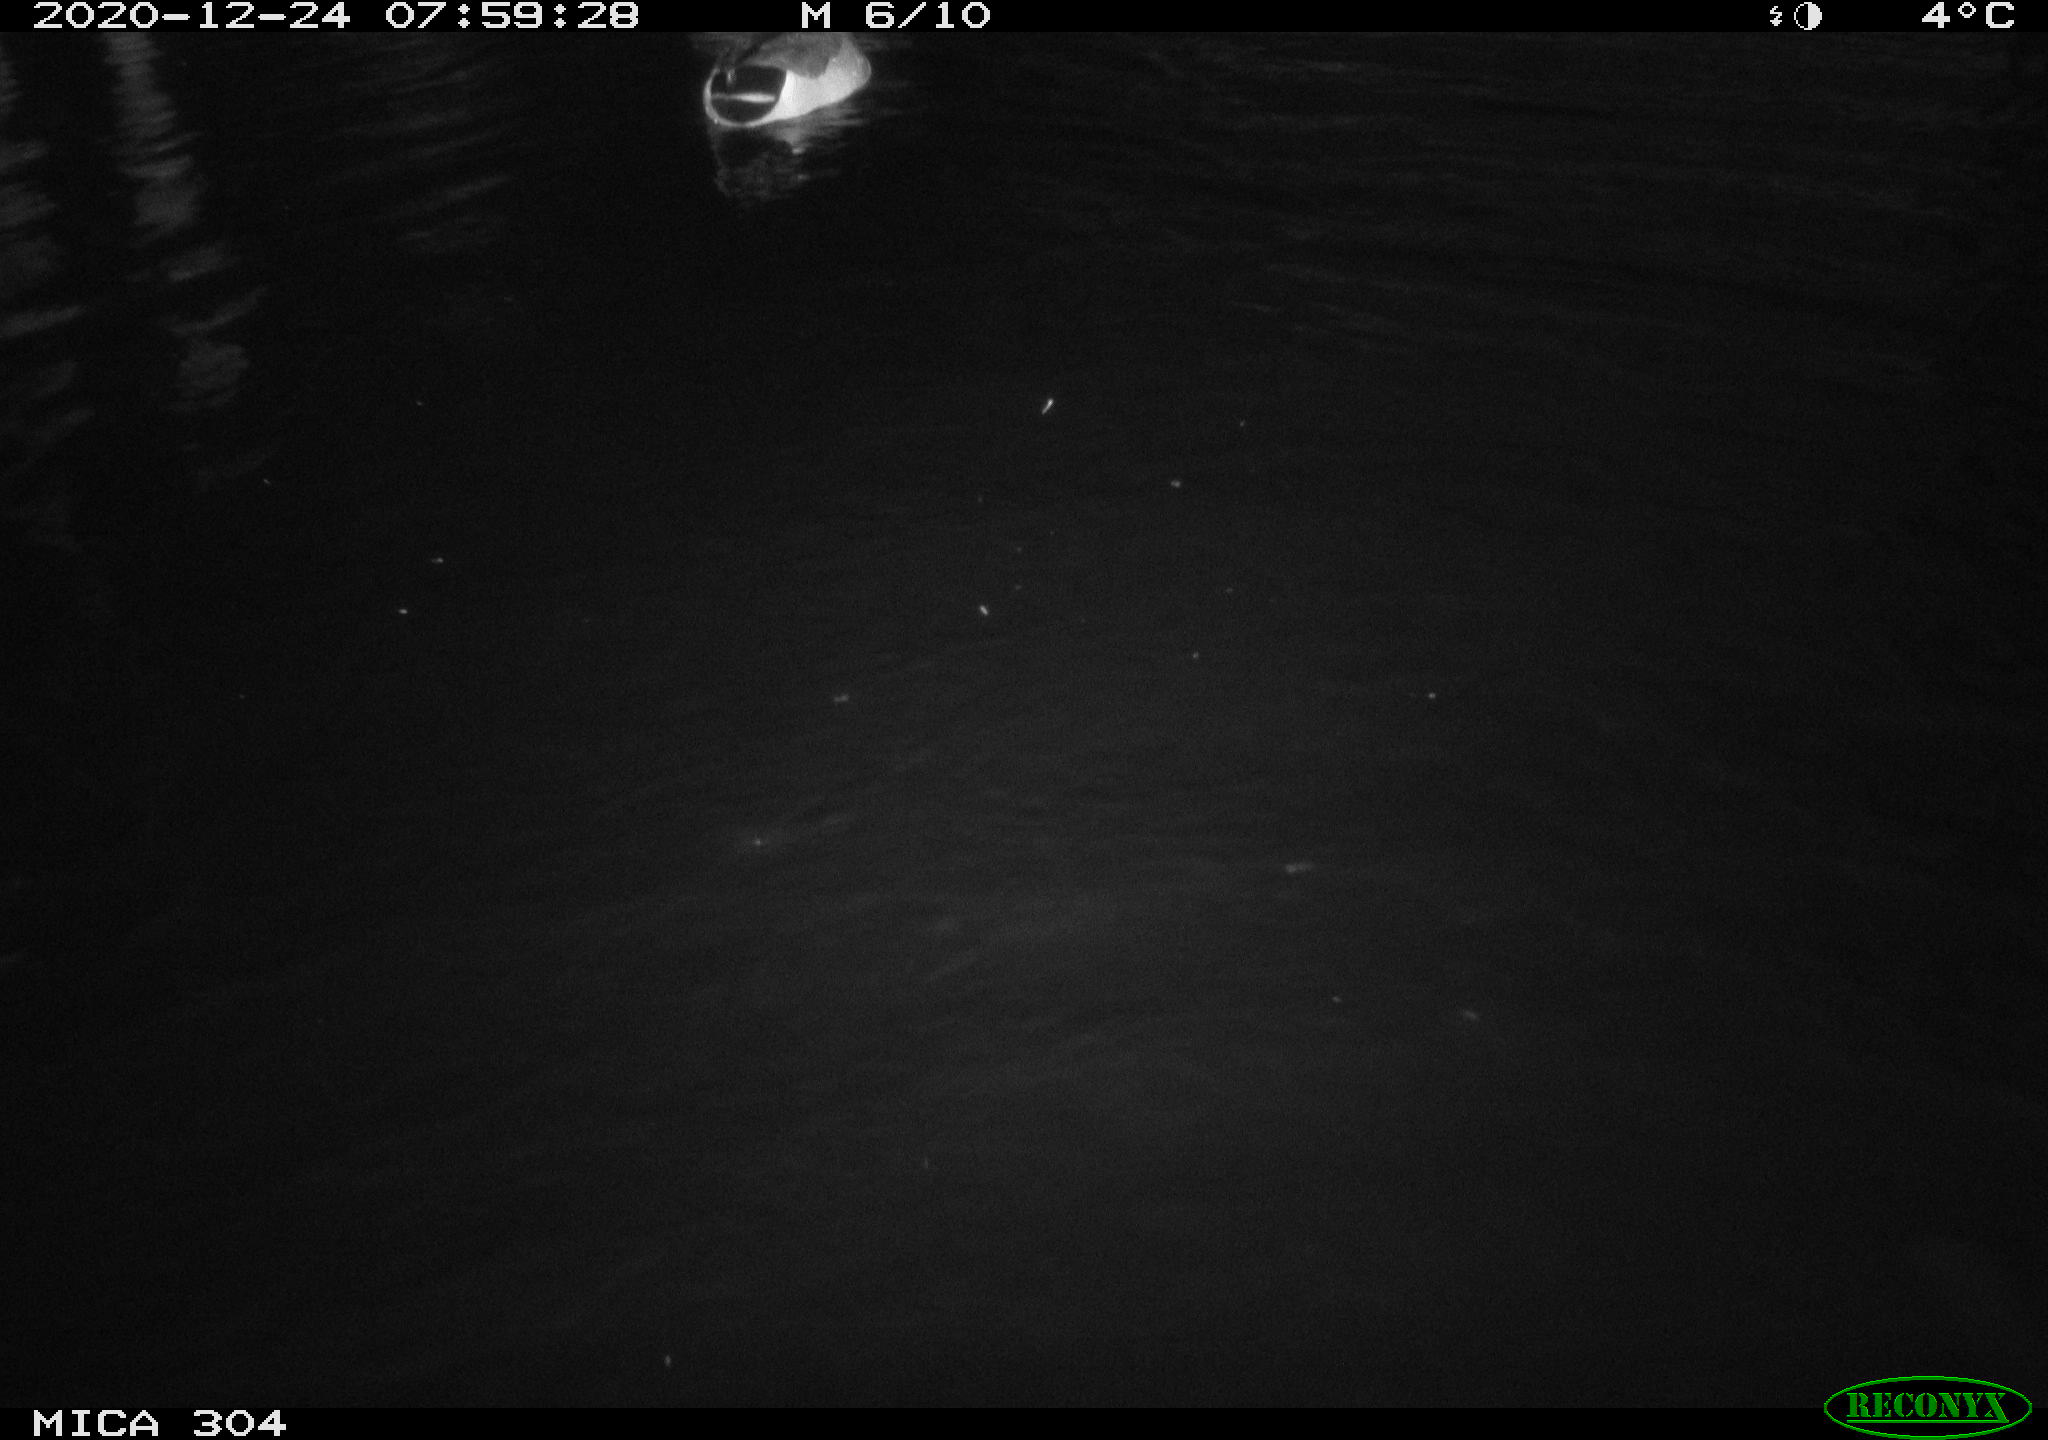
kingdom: Animalia
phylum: Chordata
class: Aves
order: Anseriformes
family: Anatidae
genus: Anas
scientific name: Anas platyrhynchos
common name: Mallard
